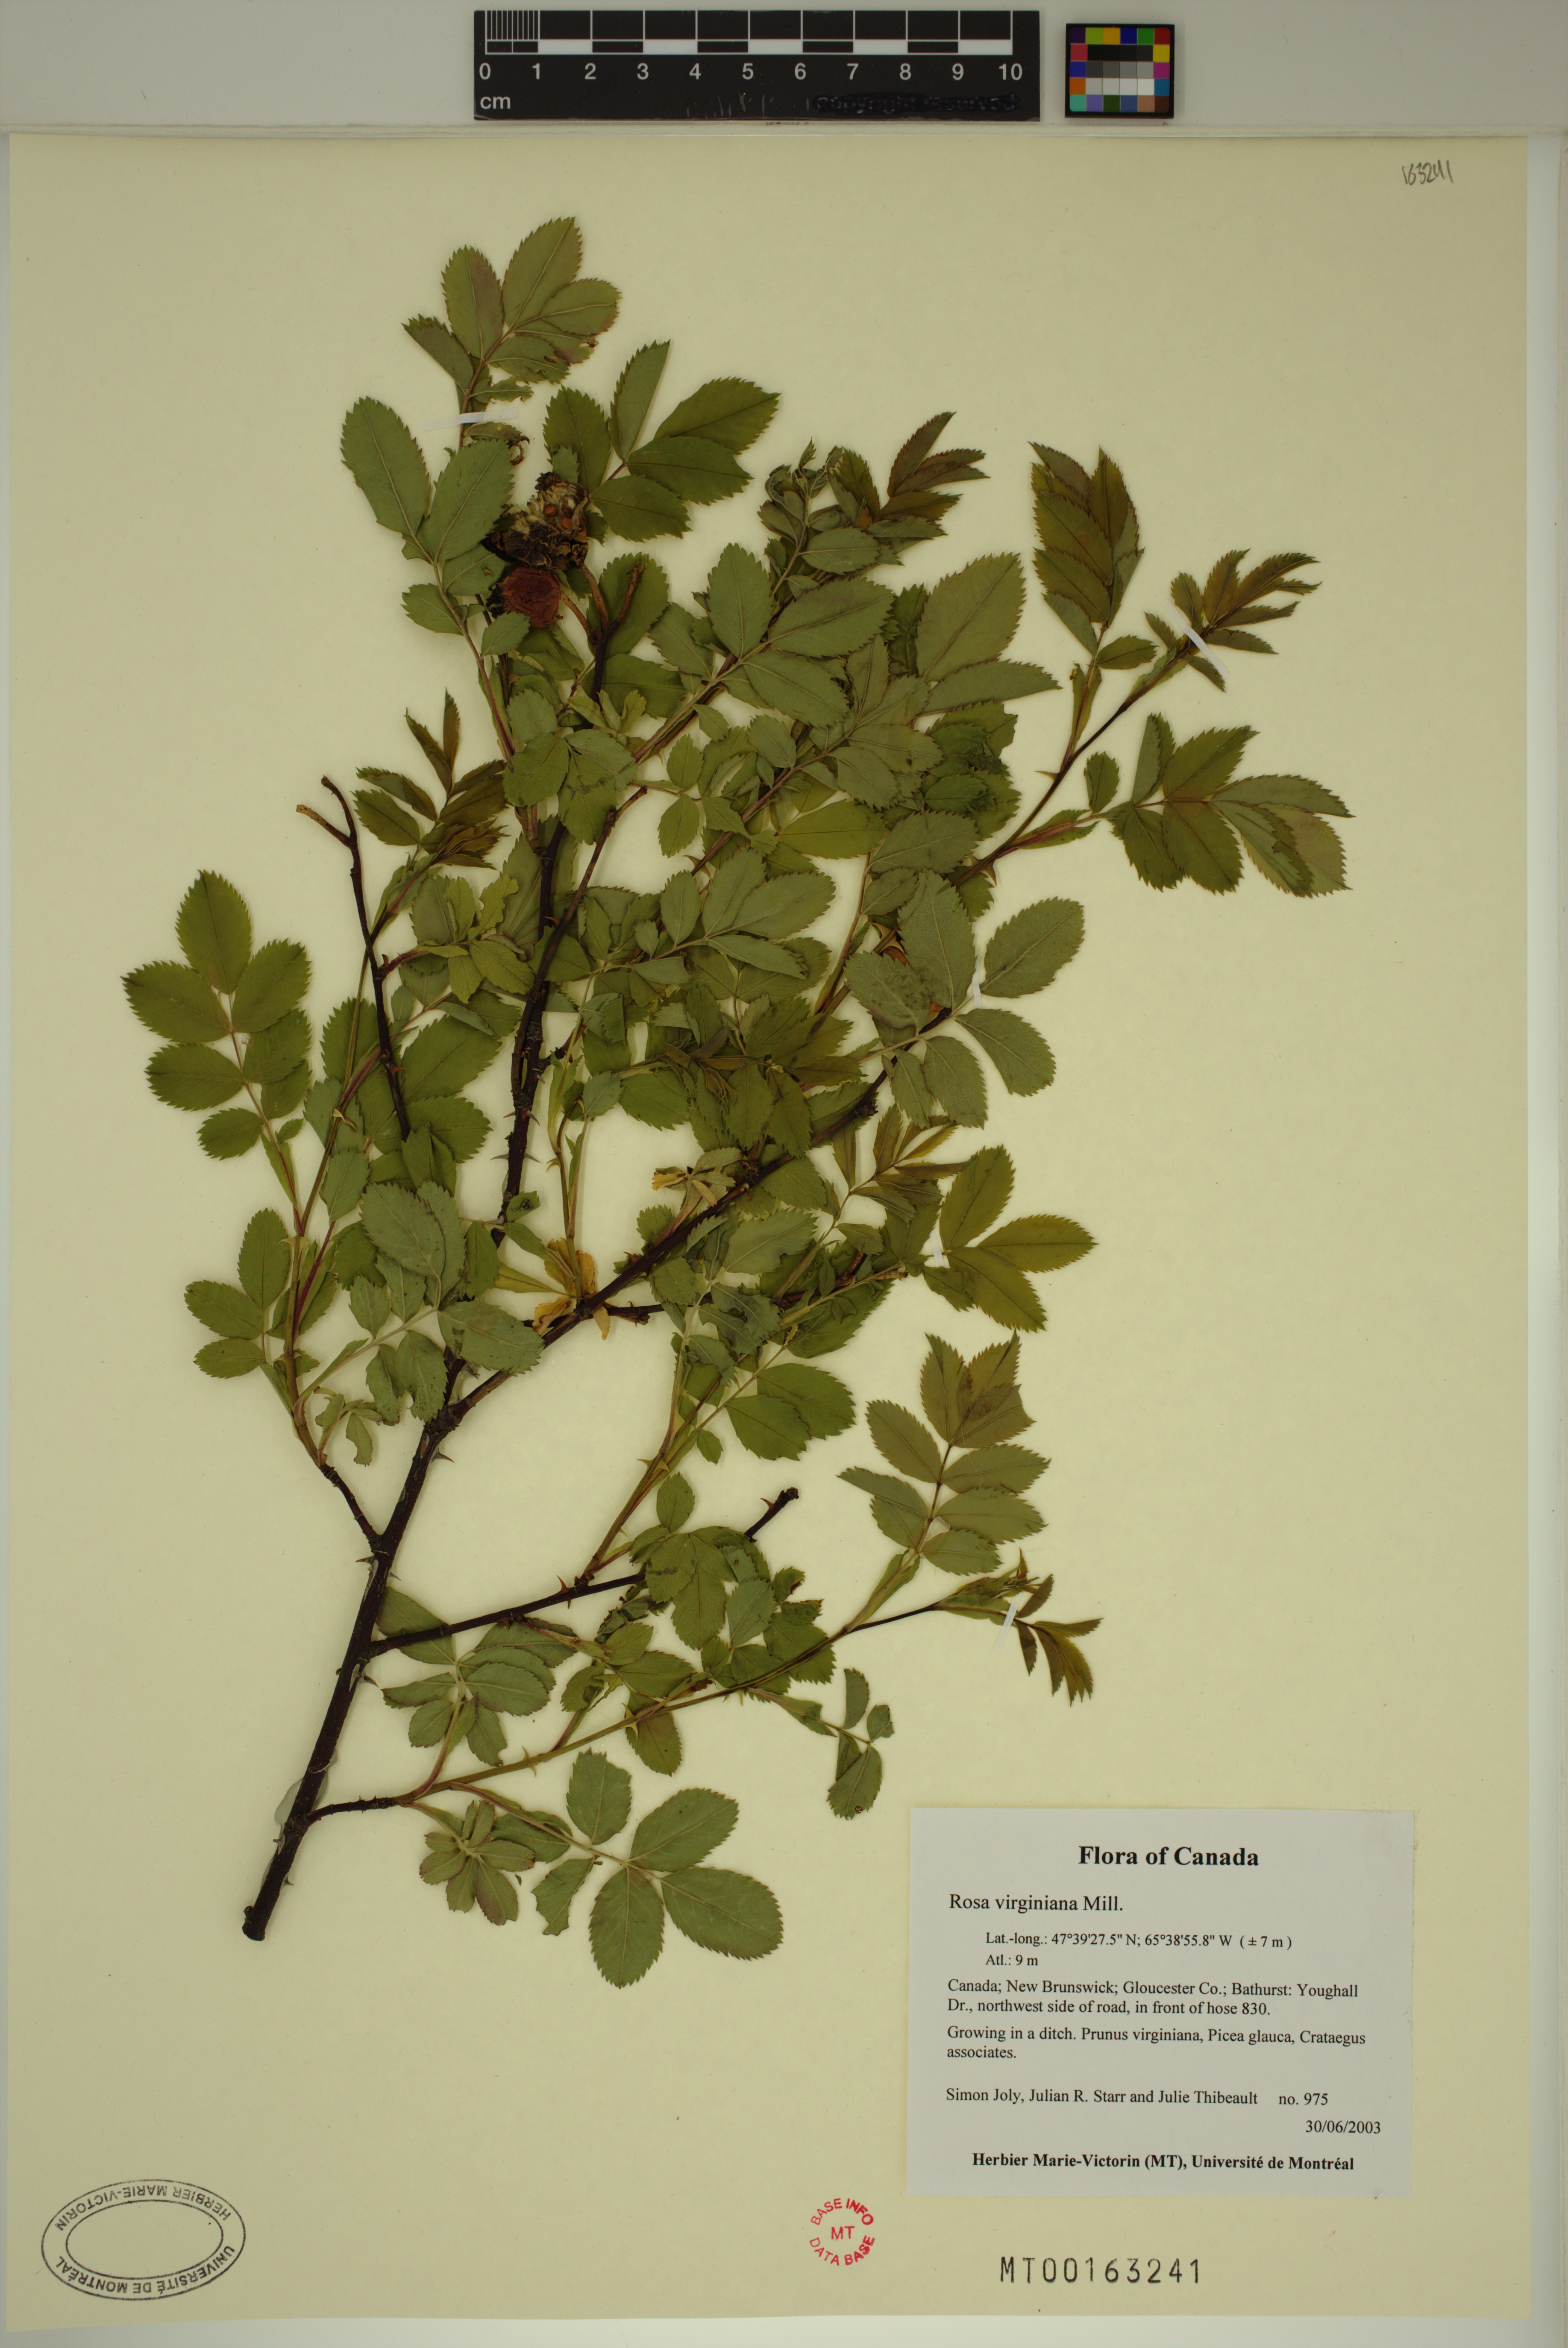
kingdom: Plantae
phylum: Tracheophyta
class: Magnoliopsida
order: Rosales
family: Rosaceae
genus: Rosa
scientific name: Rosa carolina
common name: Pasture rose
